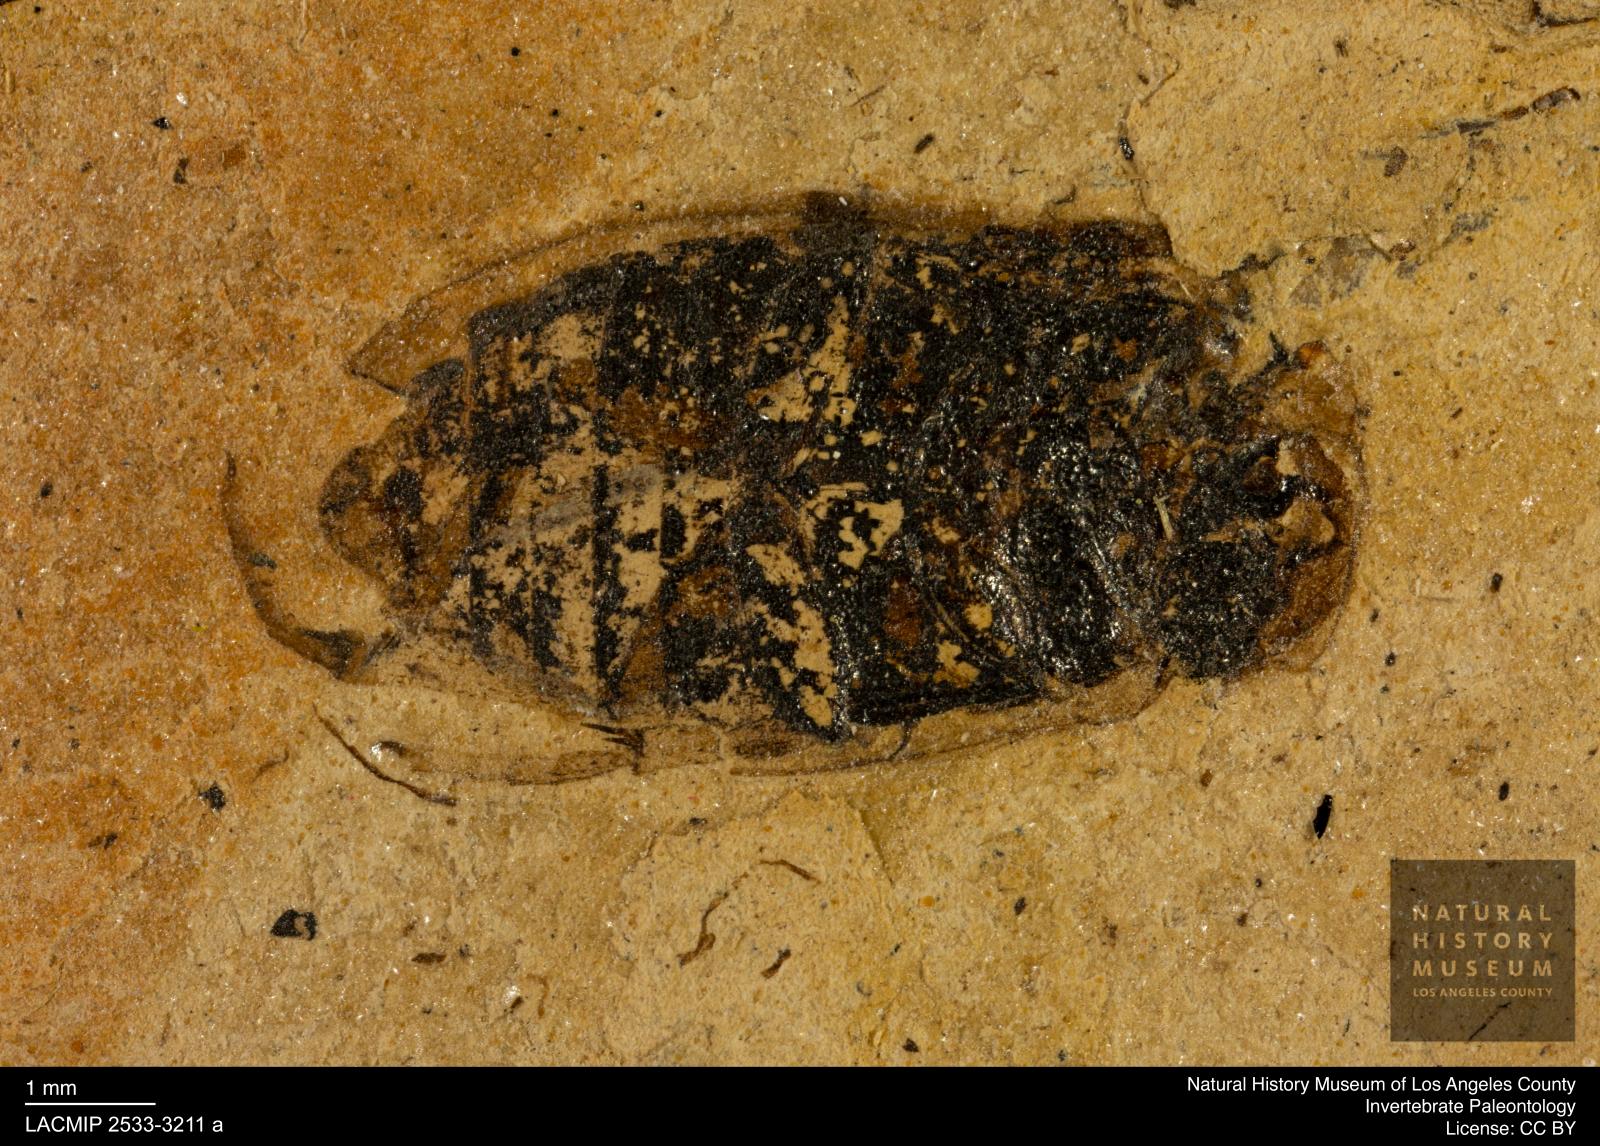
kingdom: Animalia
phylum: Arthropoda
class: Insecta
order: Coleoptera
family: Hydrophilidae
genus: Berosus
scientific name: Berosus morticinus
